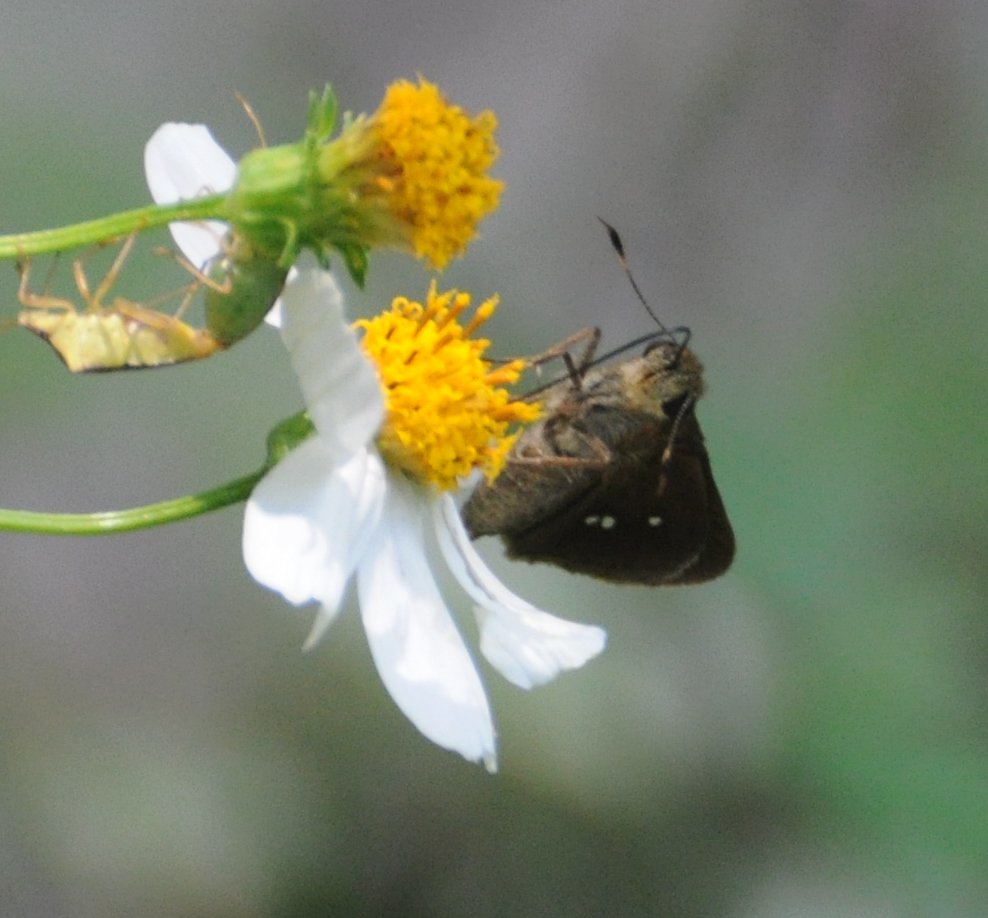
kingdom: Animalia
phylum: Arthropoda
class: Insecta
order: Lepidoptera
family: Hesperiidae
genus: Oligoria
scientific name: Oligoria maculata
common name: Twin-spot Skipper
